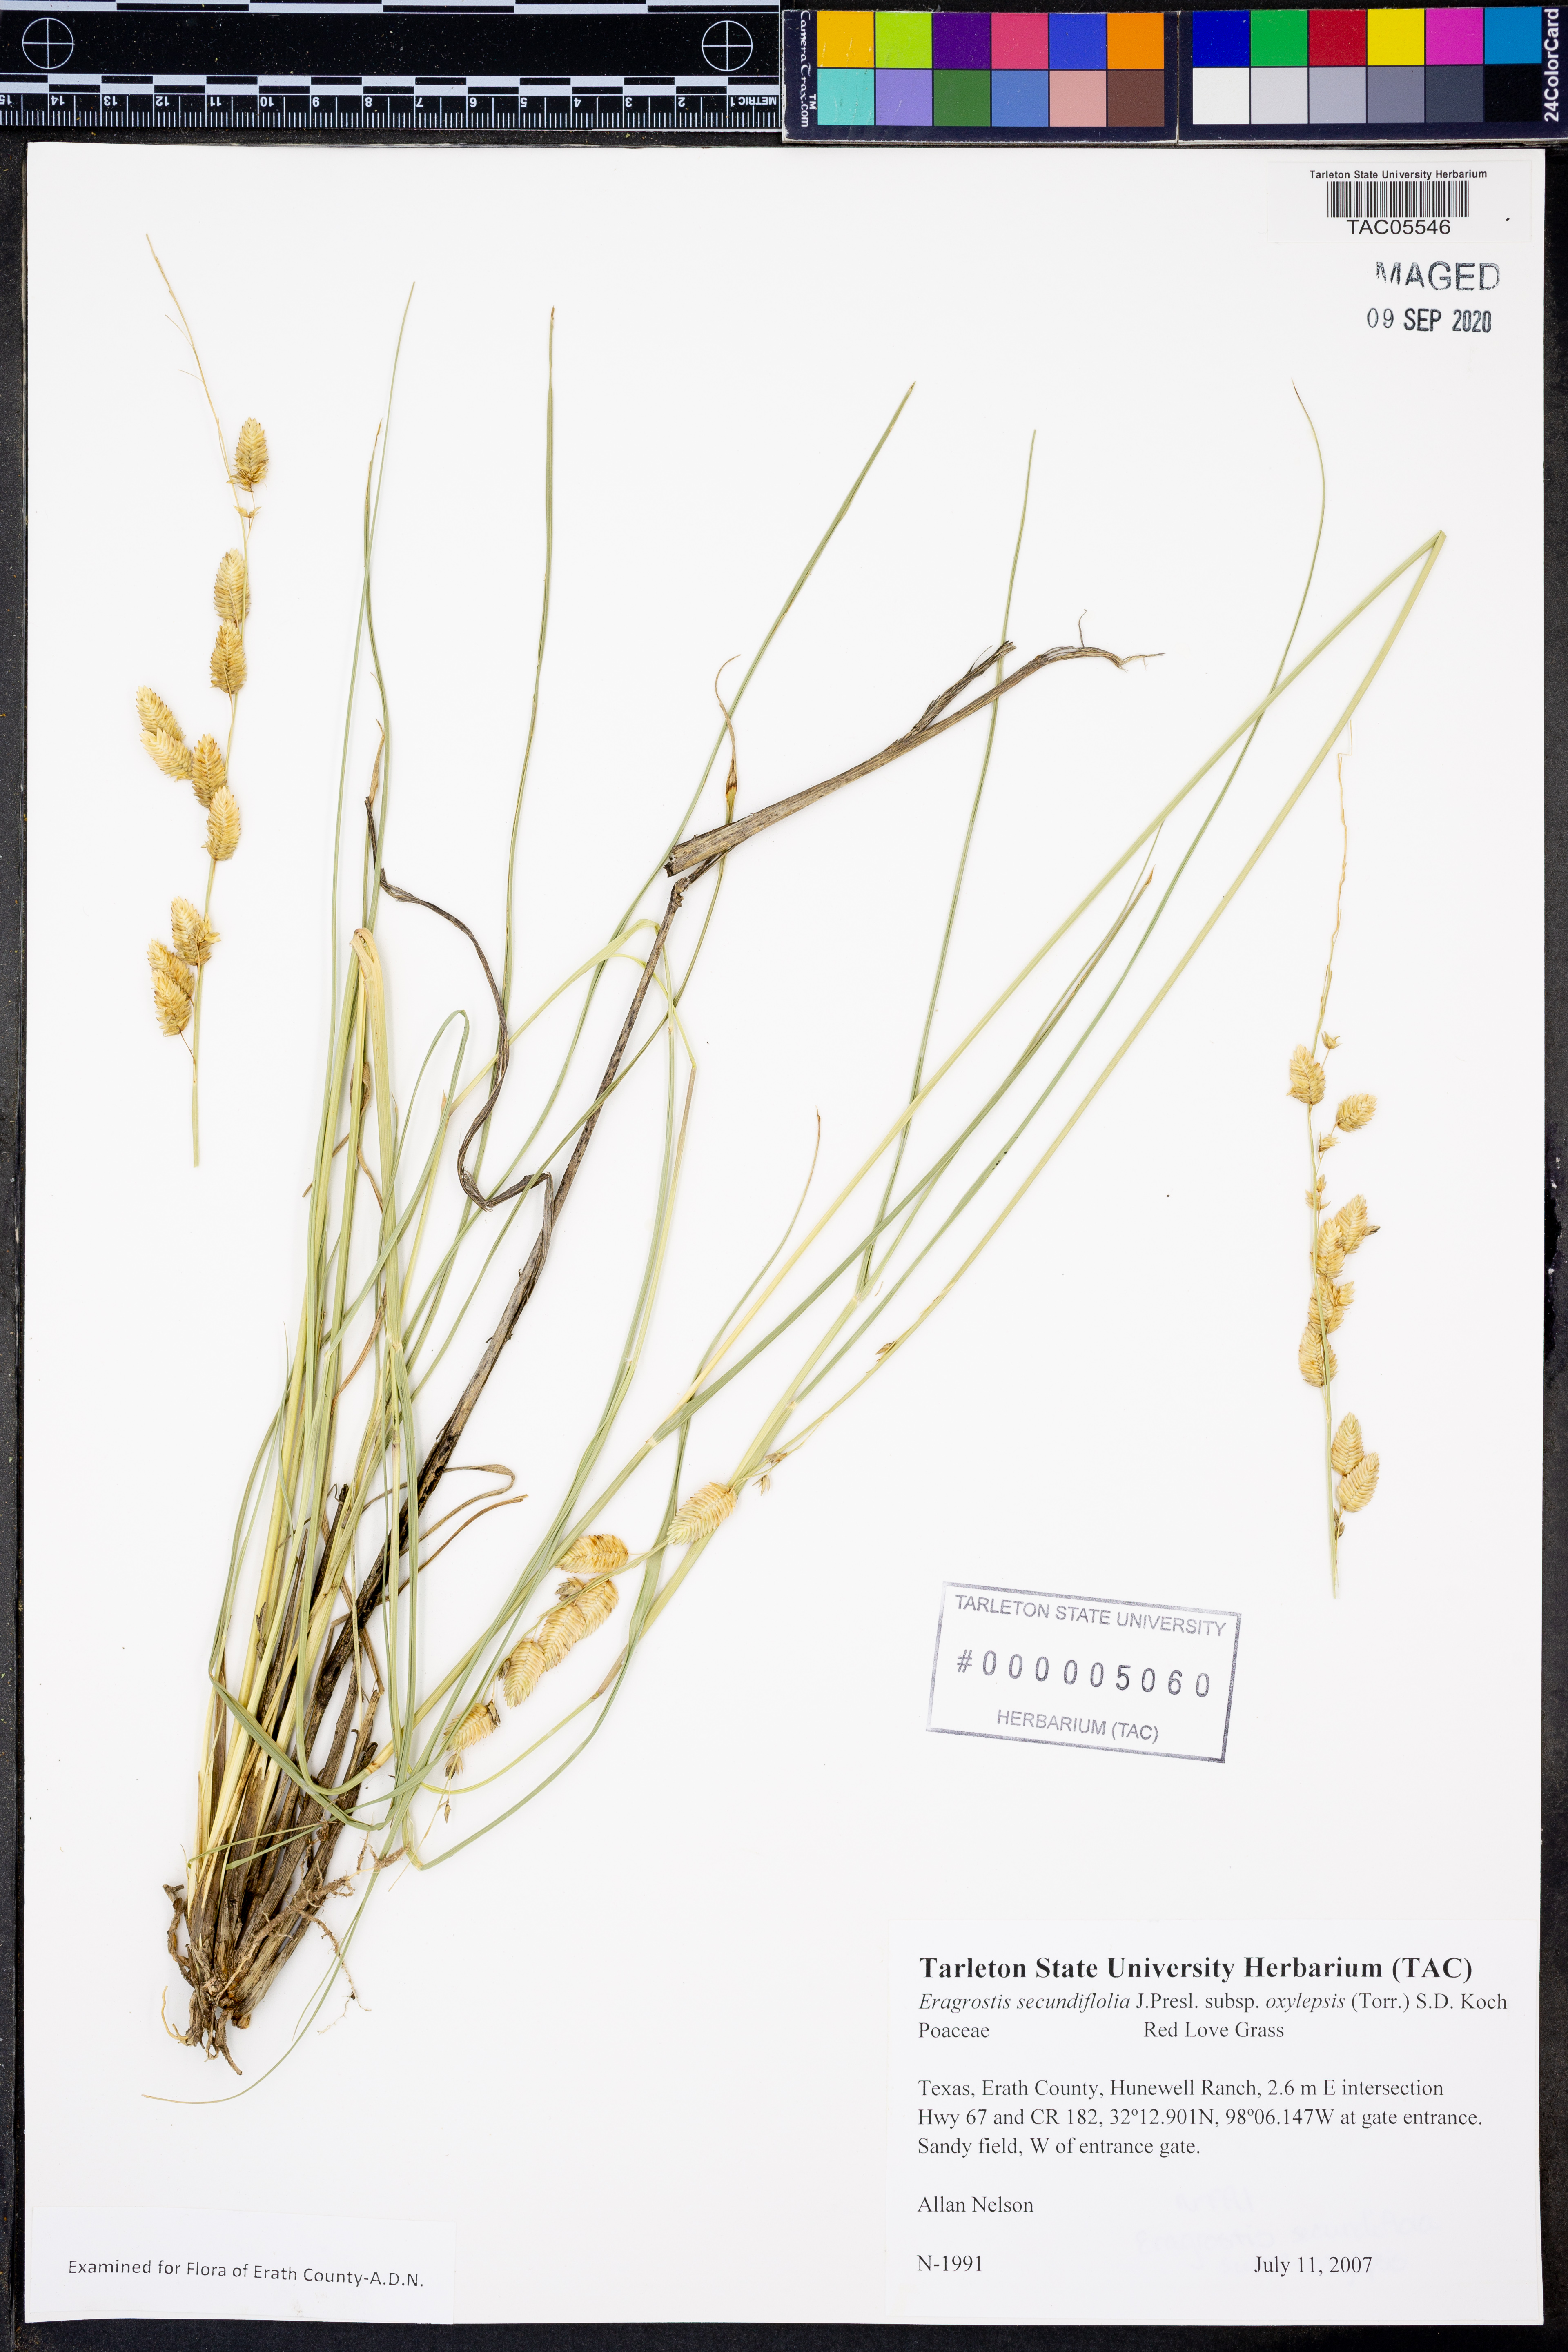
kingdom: Plantae
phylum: Tracheophyta
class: Liliopsida
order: Poales
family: Poaceae
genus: Eragrostis
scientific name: Eragrostis secundiflora
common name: Red love grass
